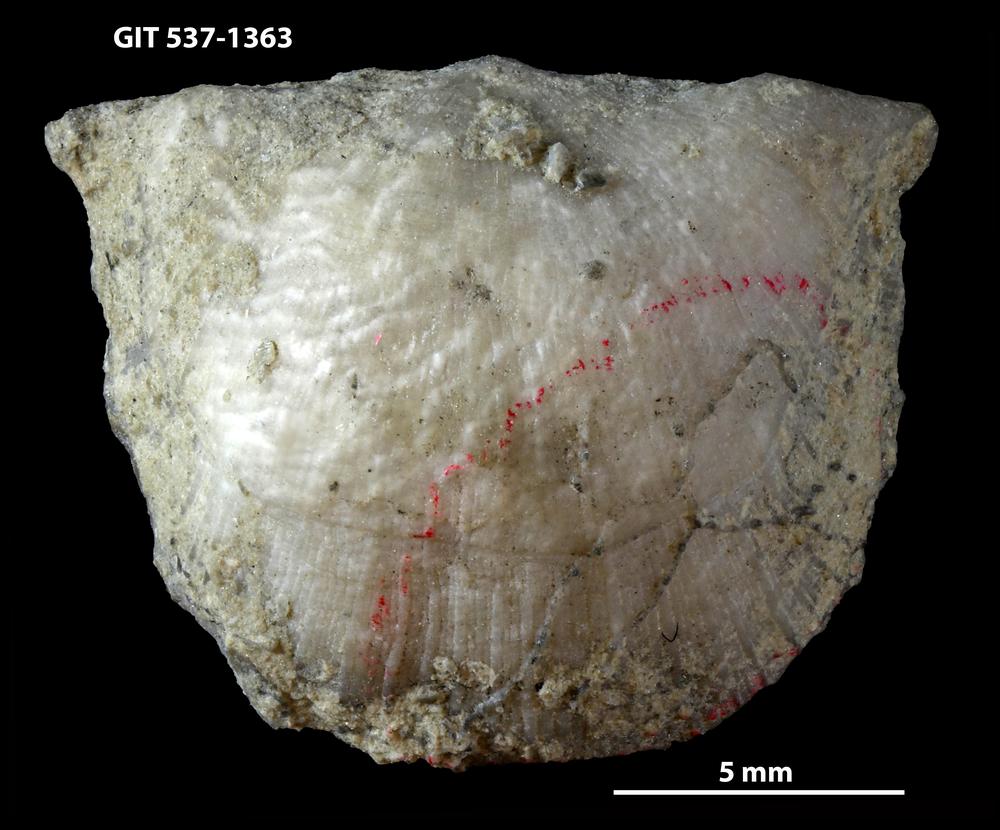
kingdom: Animalia
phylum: Brachiopoda
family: Strophomenidae
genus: Bekkerina
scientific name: Bekkerina
